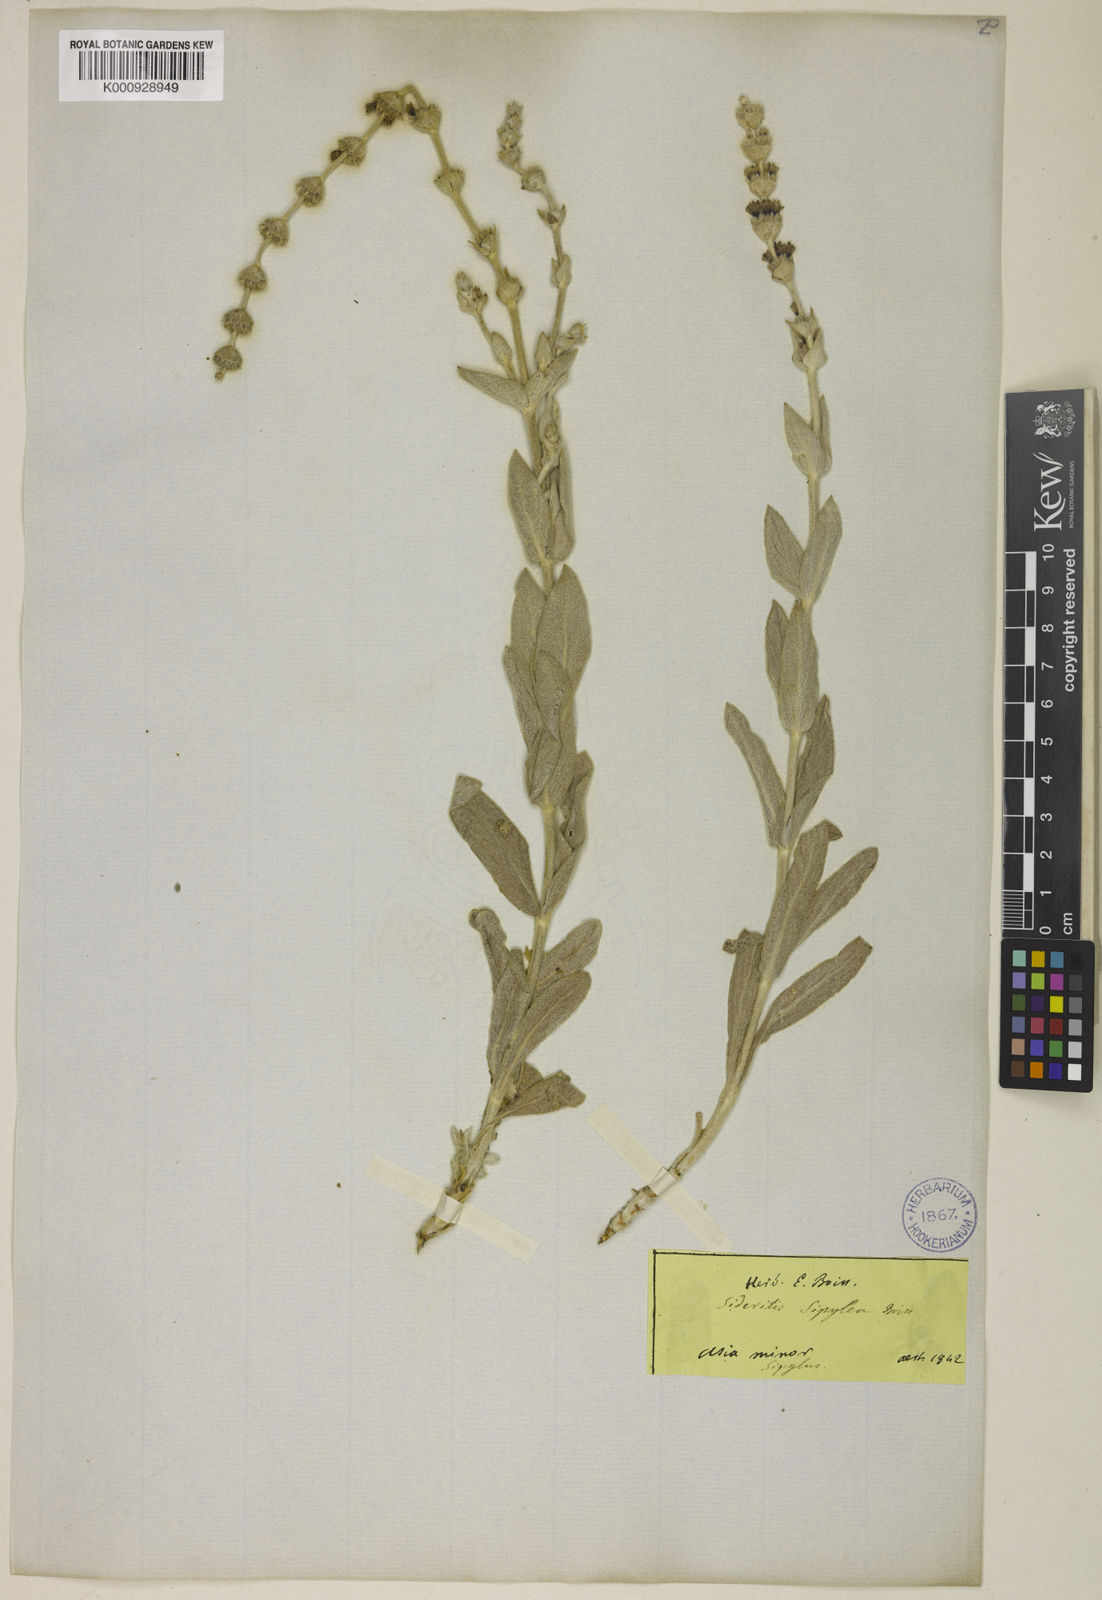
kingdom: Plantae
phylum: Tracheophyta
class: Magnoliopsida
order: Lamiales
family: Lamiaceae
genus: Sideritis
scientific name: Sideritis sipylea
